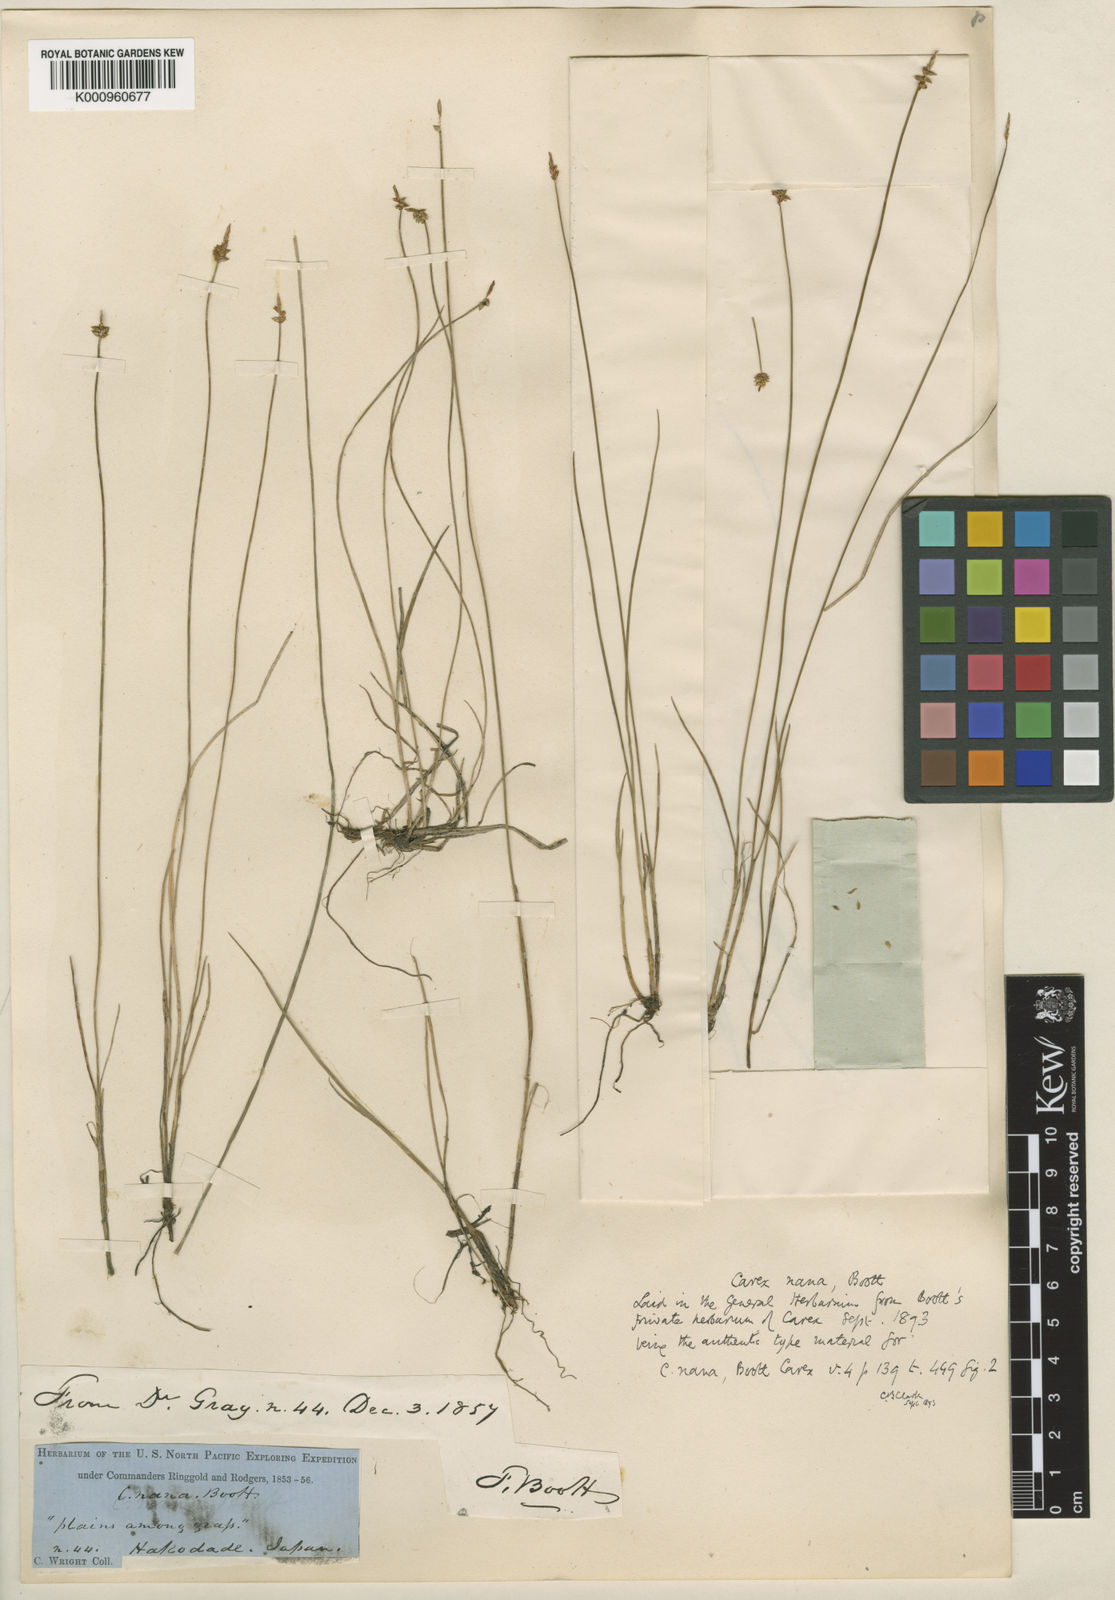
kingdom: Plantae
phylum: Tracheophyta
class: Liliopsida
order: Poales
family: Cyperaceae
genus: Carex
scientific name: Carex rara
